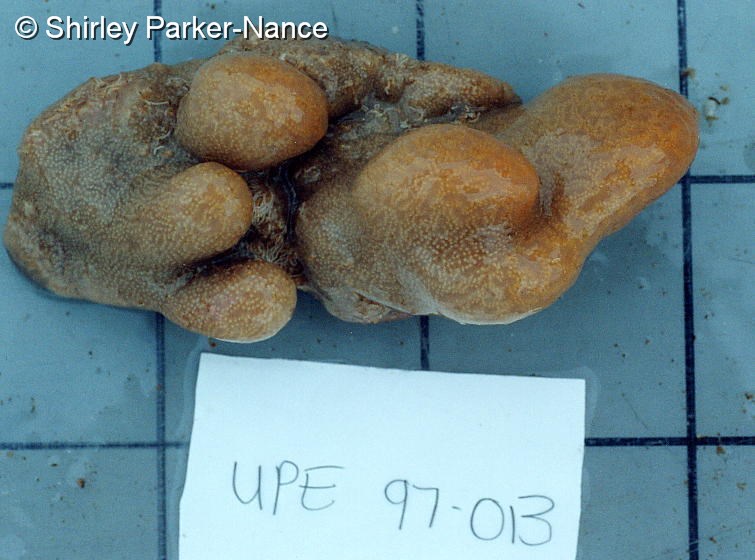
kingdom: Animalia
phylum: Chordata
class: Ascidiacea
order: Aplousobranchia
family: Polyclinidae
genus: Aplidium
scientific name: Aplidium
